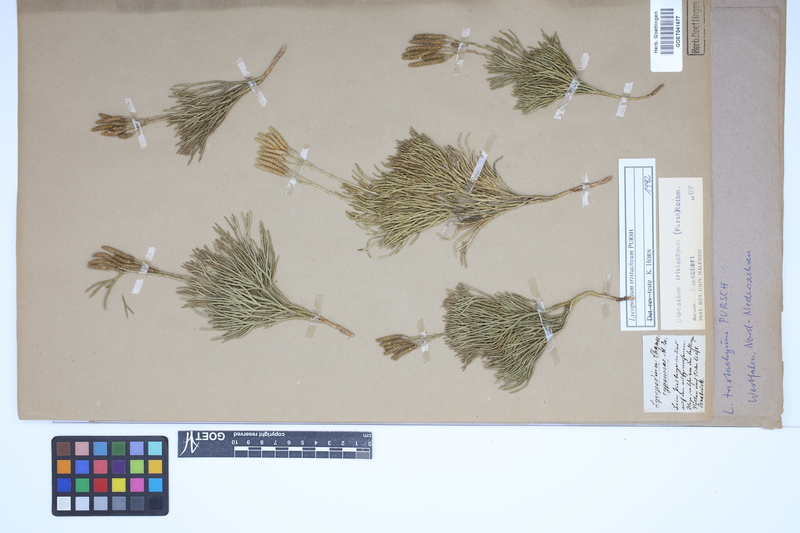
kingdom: Plantae
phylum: Tracheophyta
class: Lycopodiopsida
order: Lycopodiales
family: Lycopodiaceae
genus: Diphasiastrum
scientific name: Diphasiastrum tristachyum
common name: Blue ground-cedar
